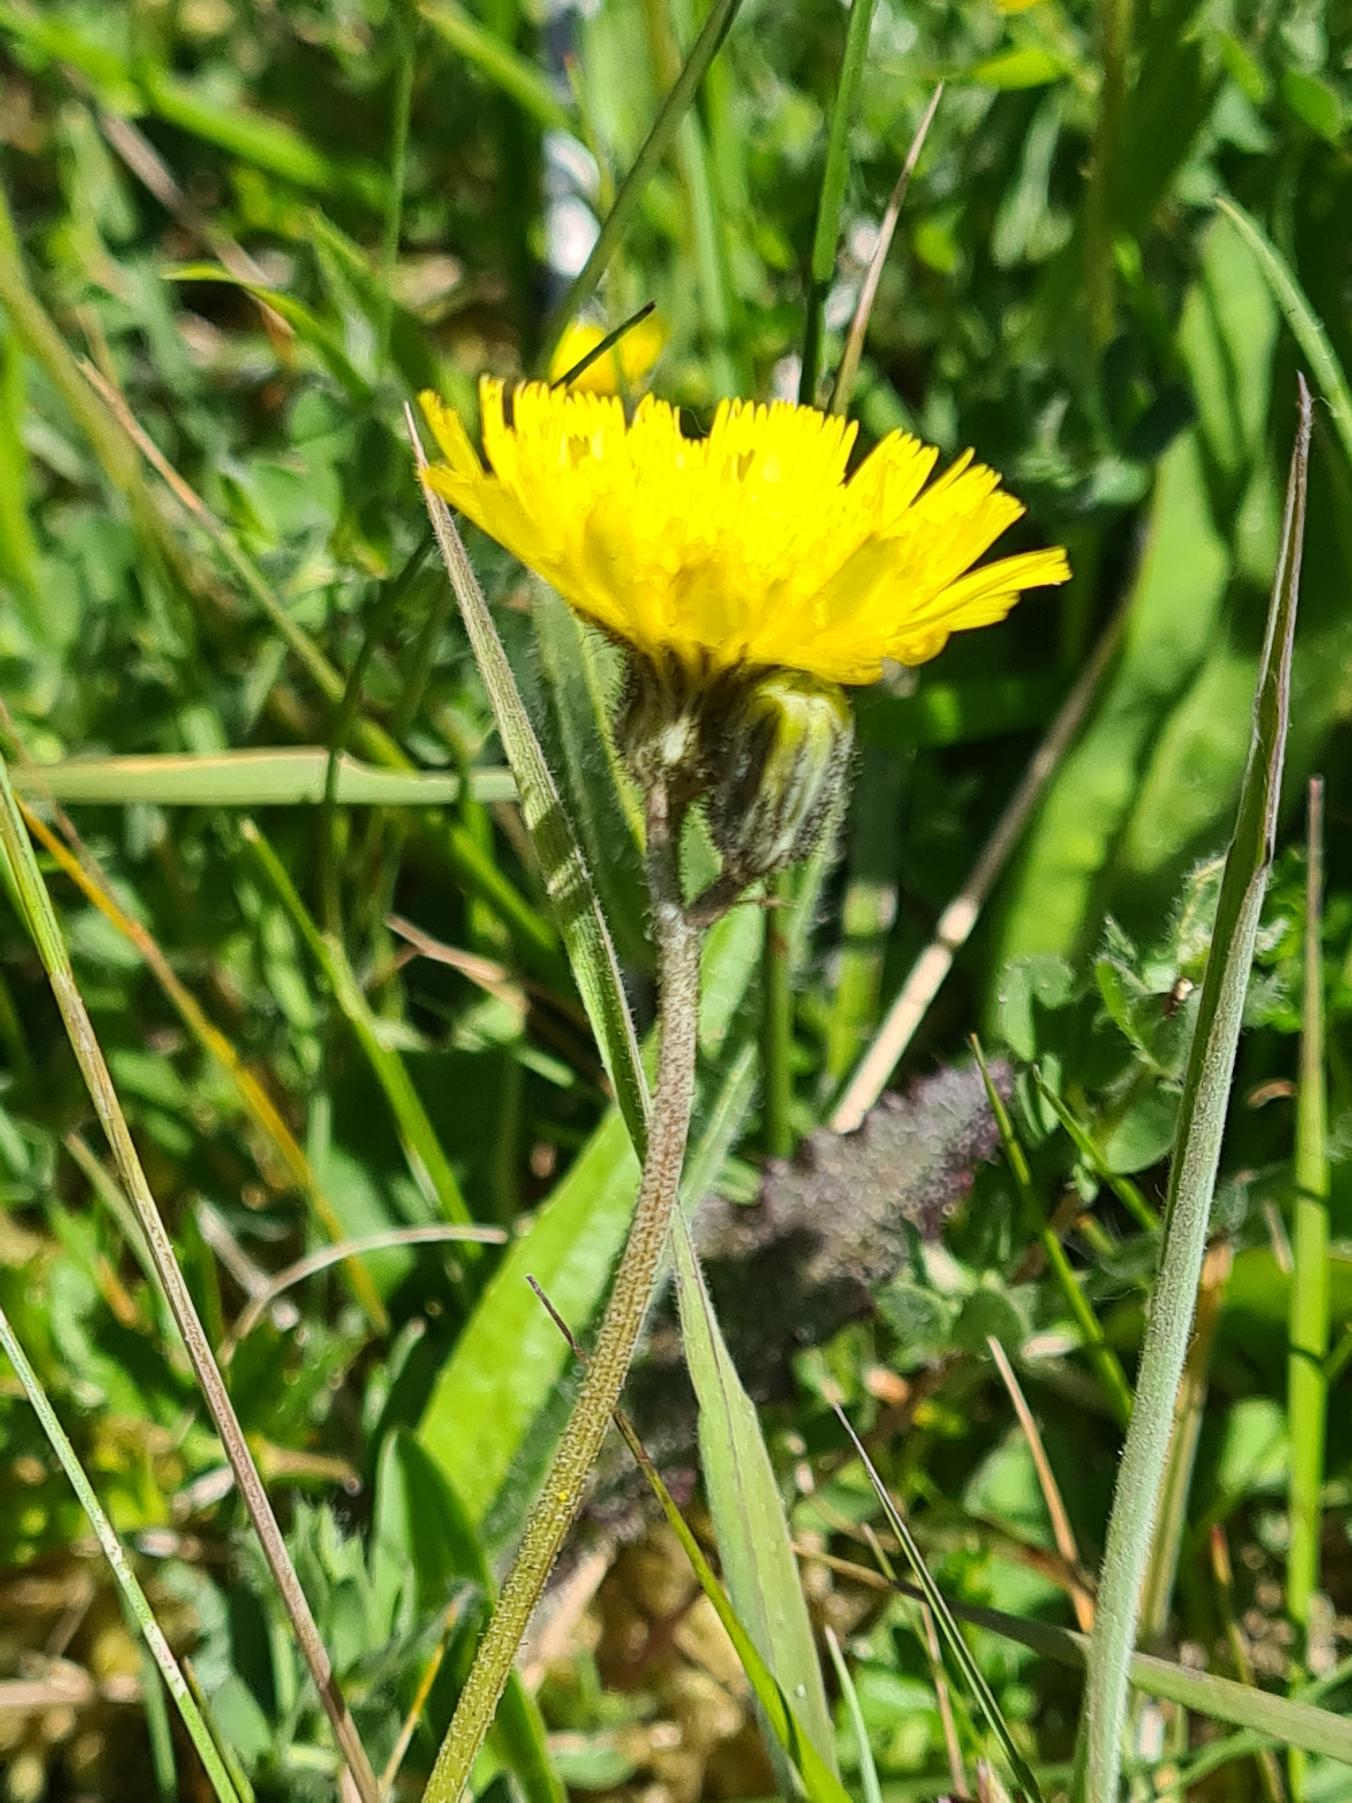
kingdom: Plantae
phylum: Tracheophyta
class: Magnoliopsida
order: Asterales
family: Asteraceae
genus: Pilosella
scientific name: Pilosella lactucella
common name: Lancetbladet høgeurt
